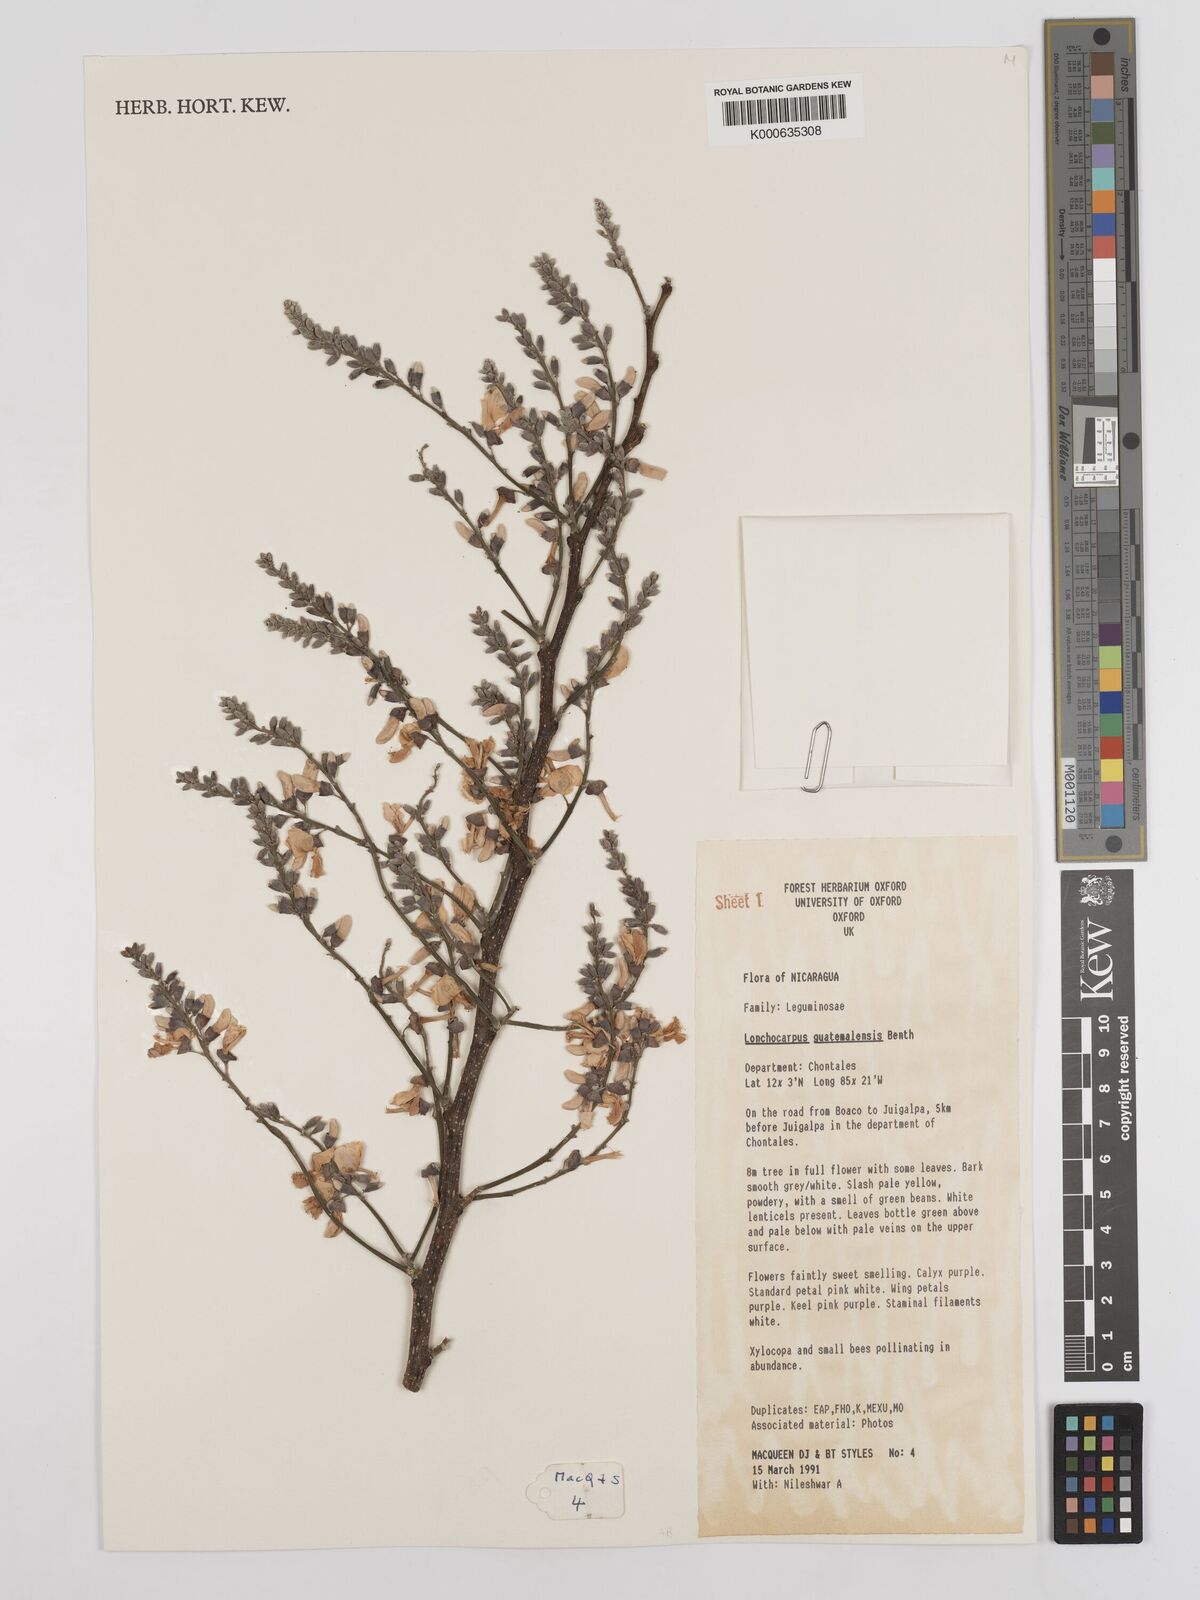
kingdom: Plantae
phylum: Tracheophyta
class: Magnoliopsida
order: Fabales
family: Fabaceae
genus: Lonchocarpus
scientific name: Lonchocarpus guatemalensis
